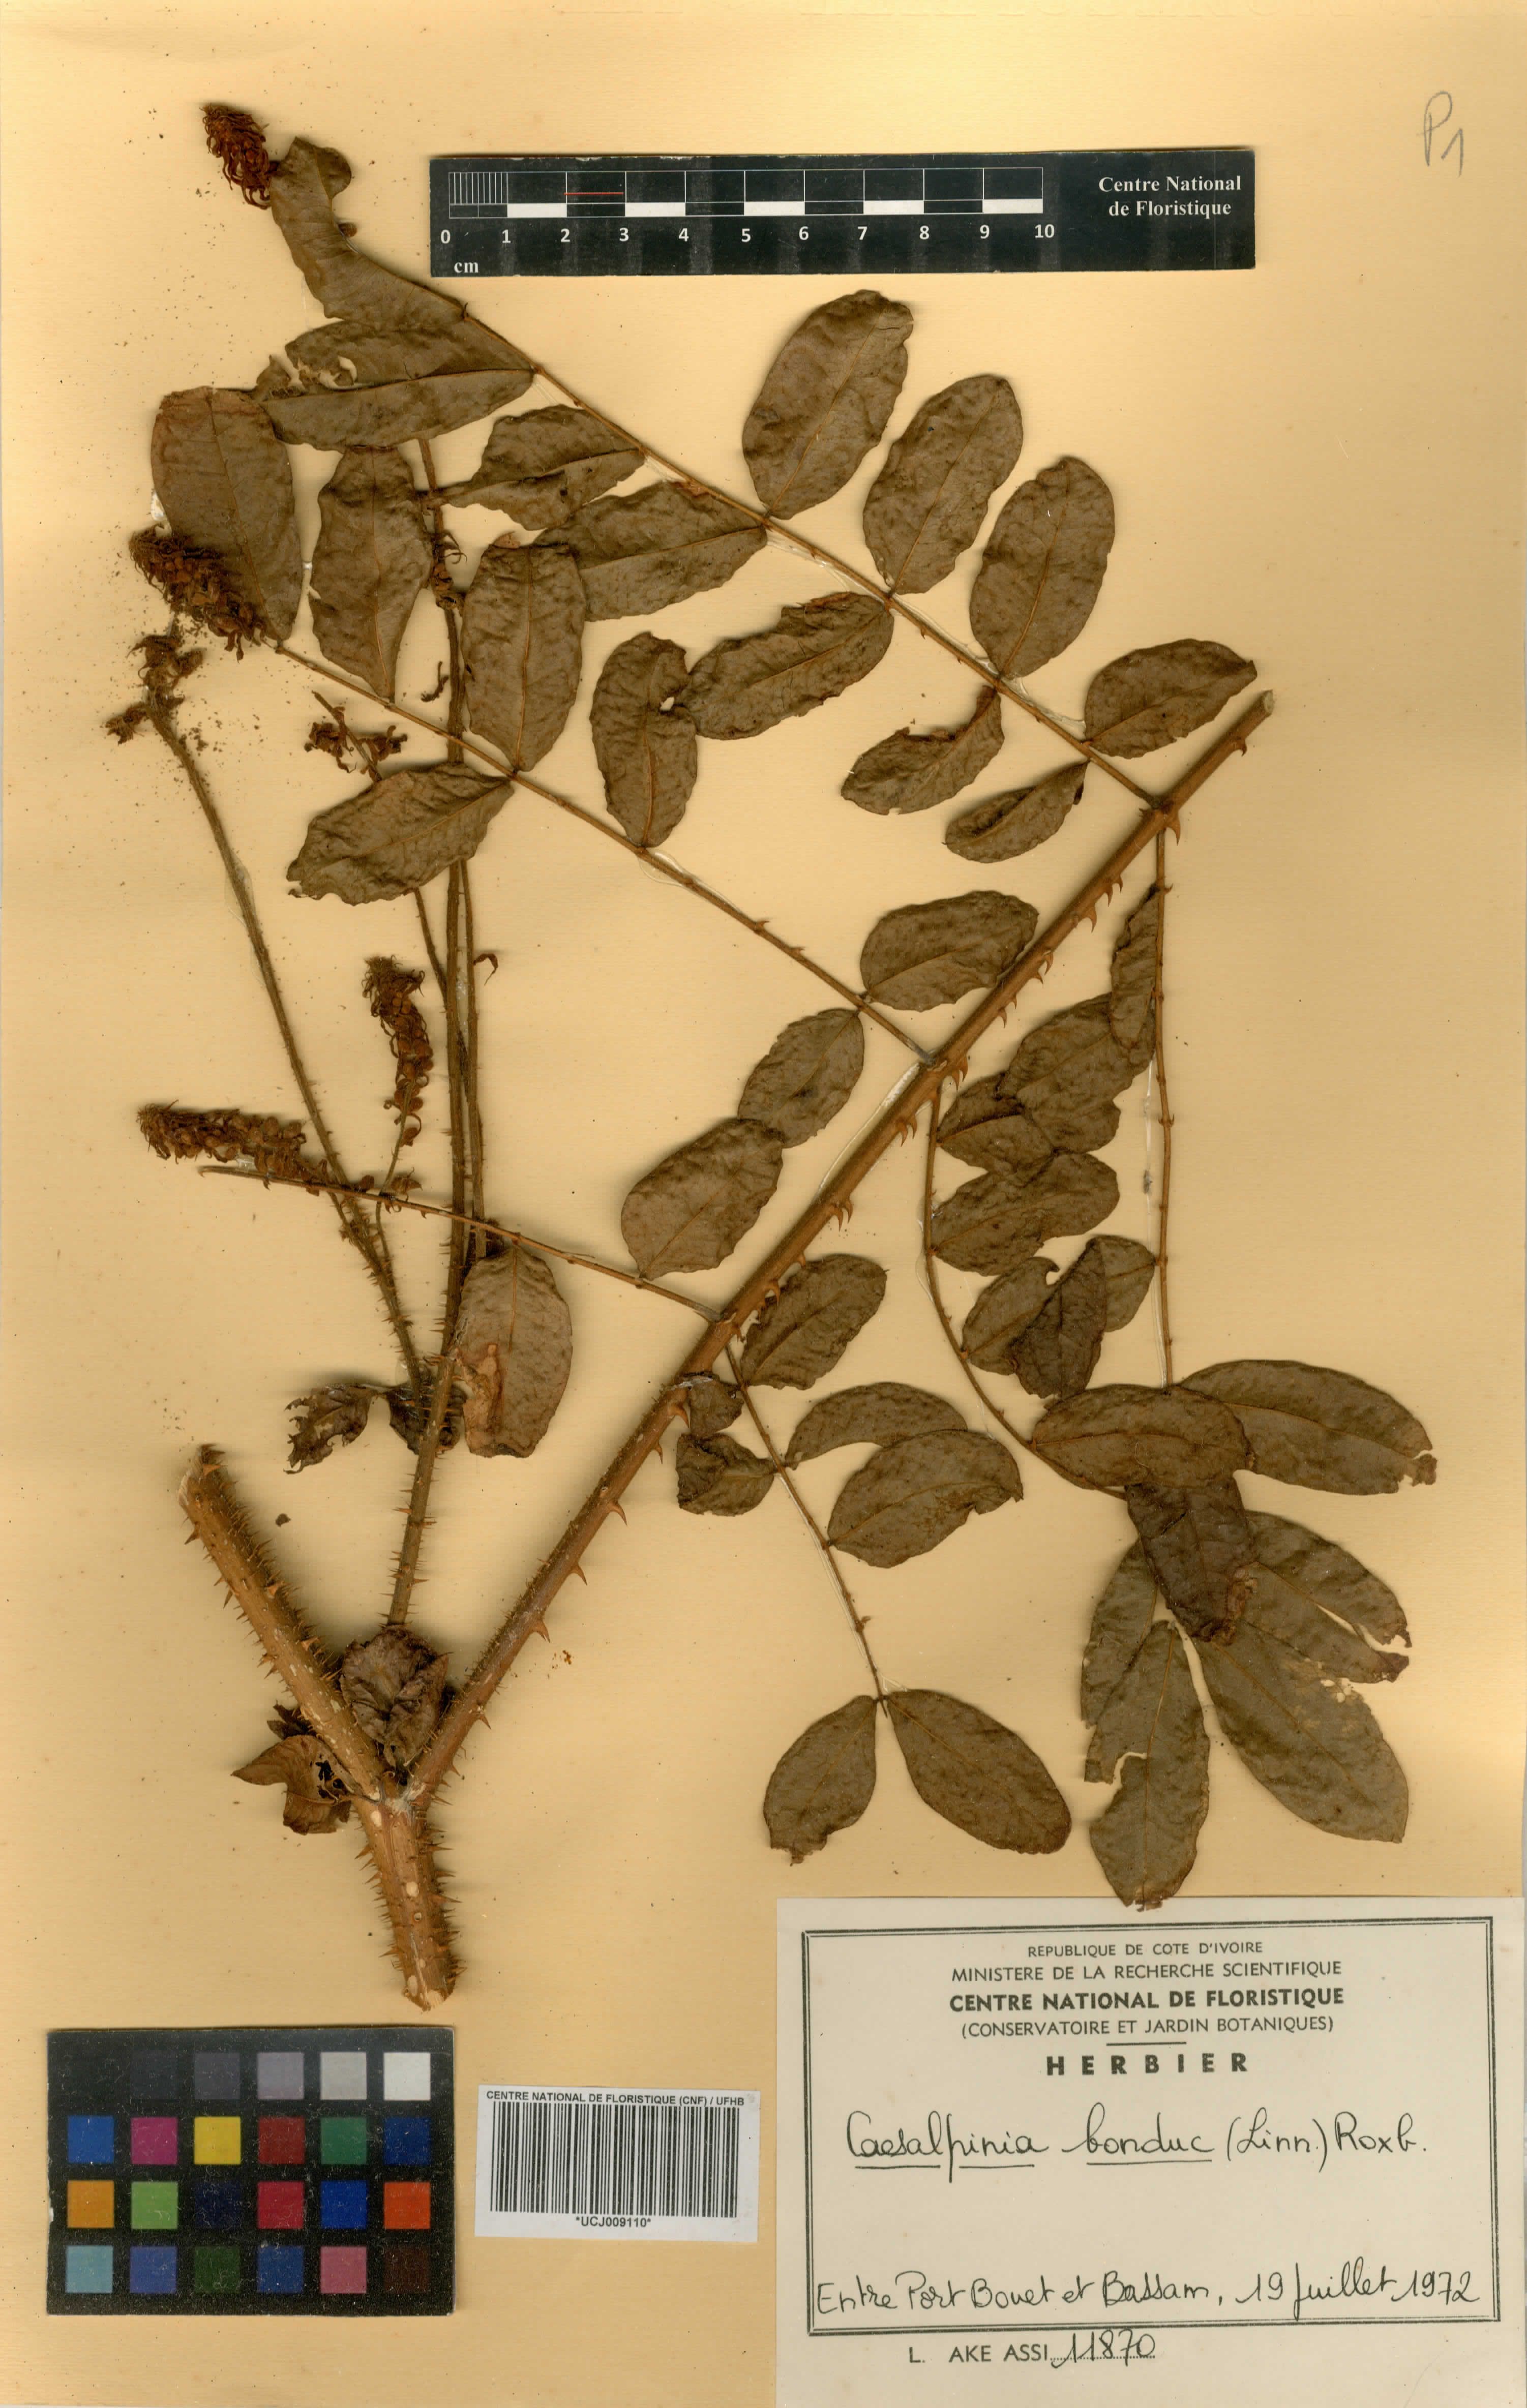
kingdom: Plantae
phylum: Tracheophyta
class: Magnoliopsida
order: Fabales
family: Fabaceae
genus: Guilandina
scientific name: Guilandina bonduc
